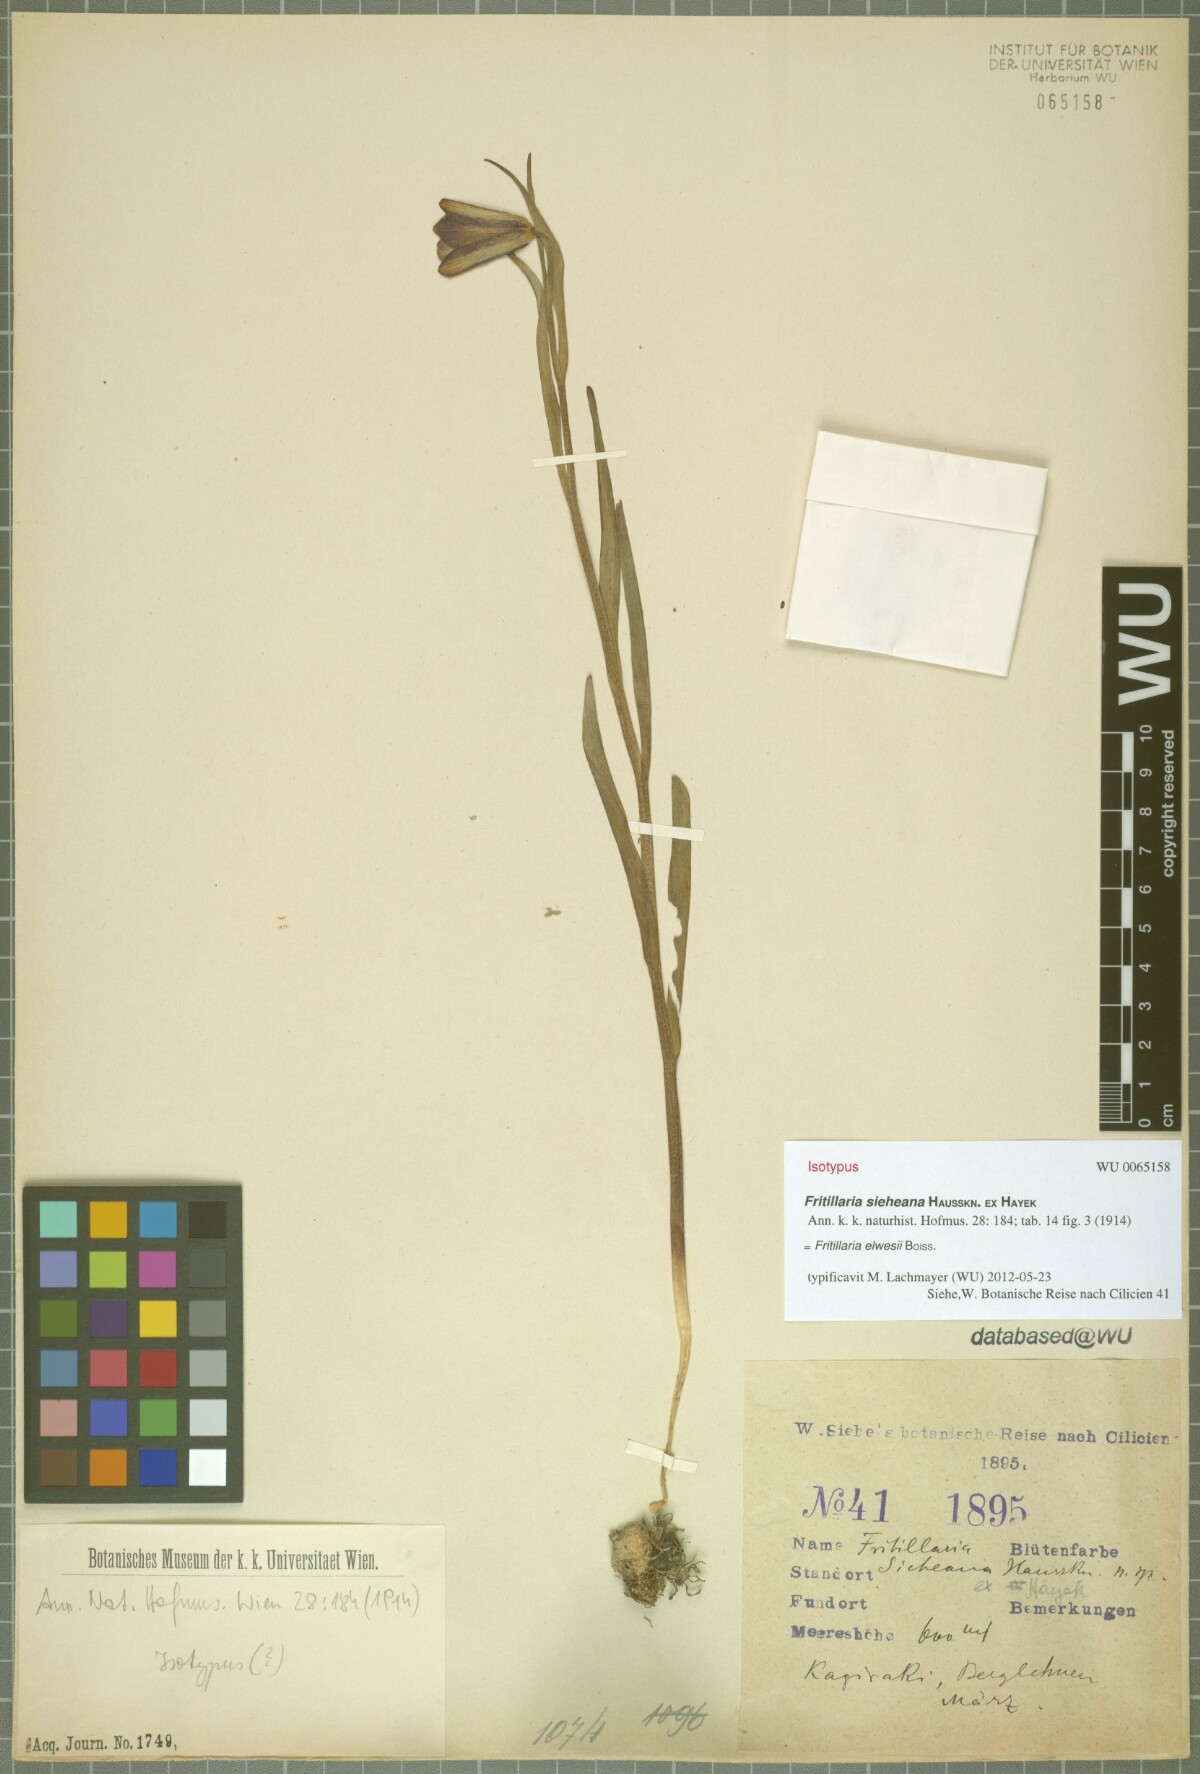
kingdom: Plantae
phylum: Tracheophyta
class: Liliopsida
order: Liliales
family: Liliaceae
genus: Fritillaria
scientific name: Fritillaria elwesii
